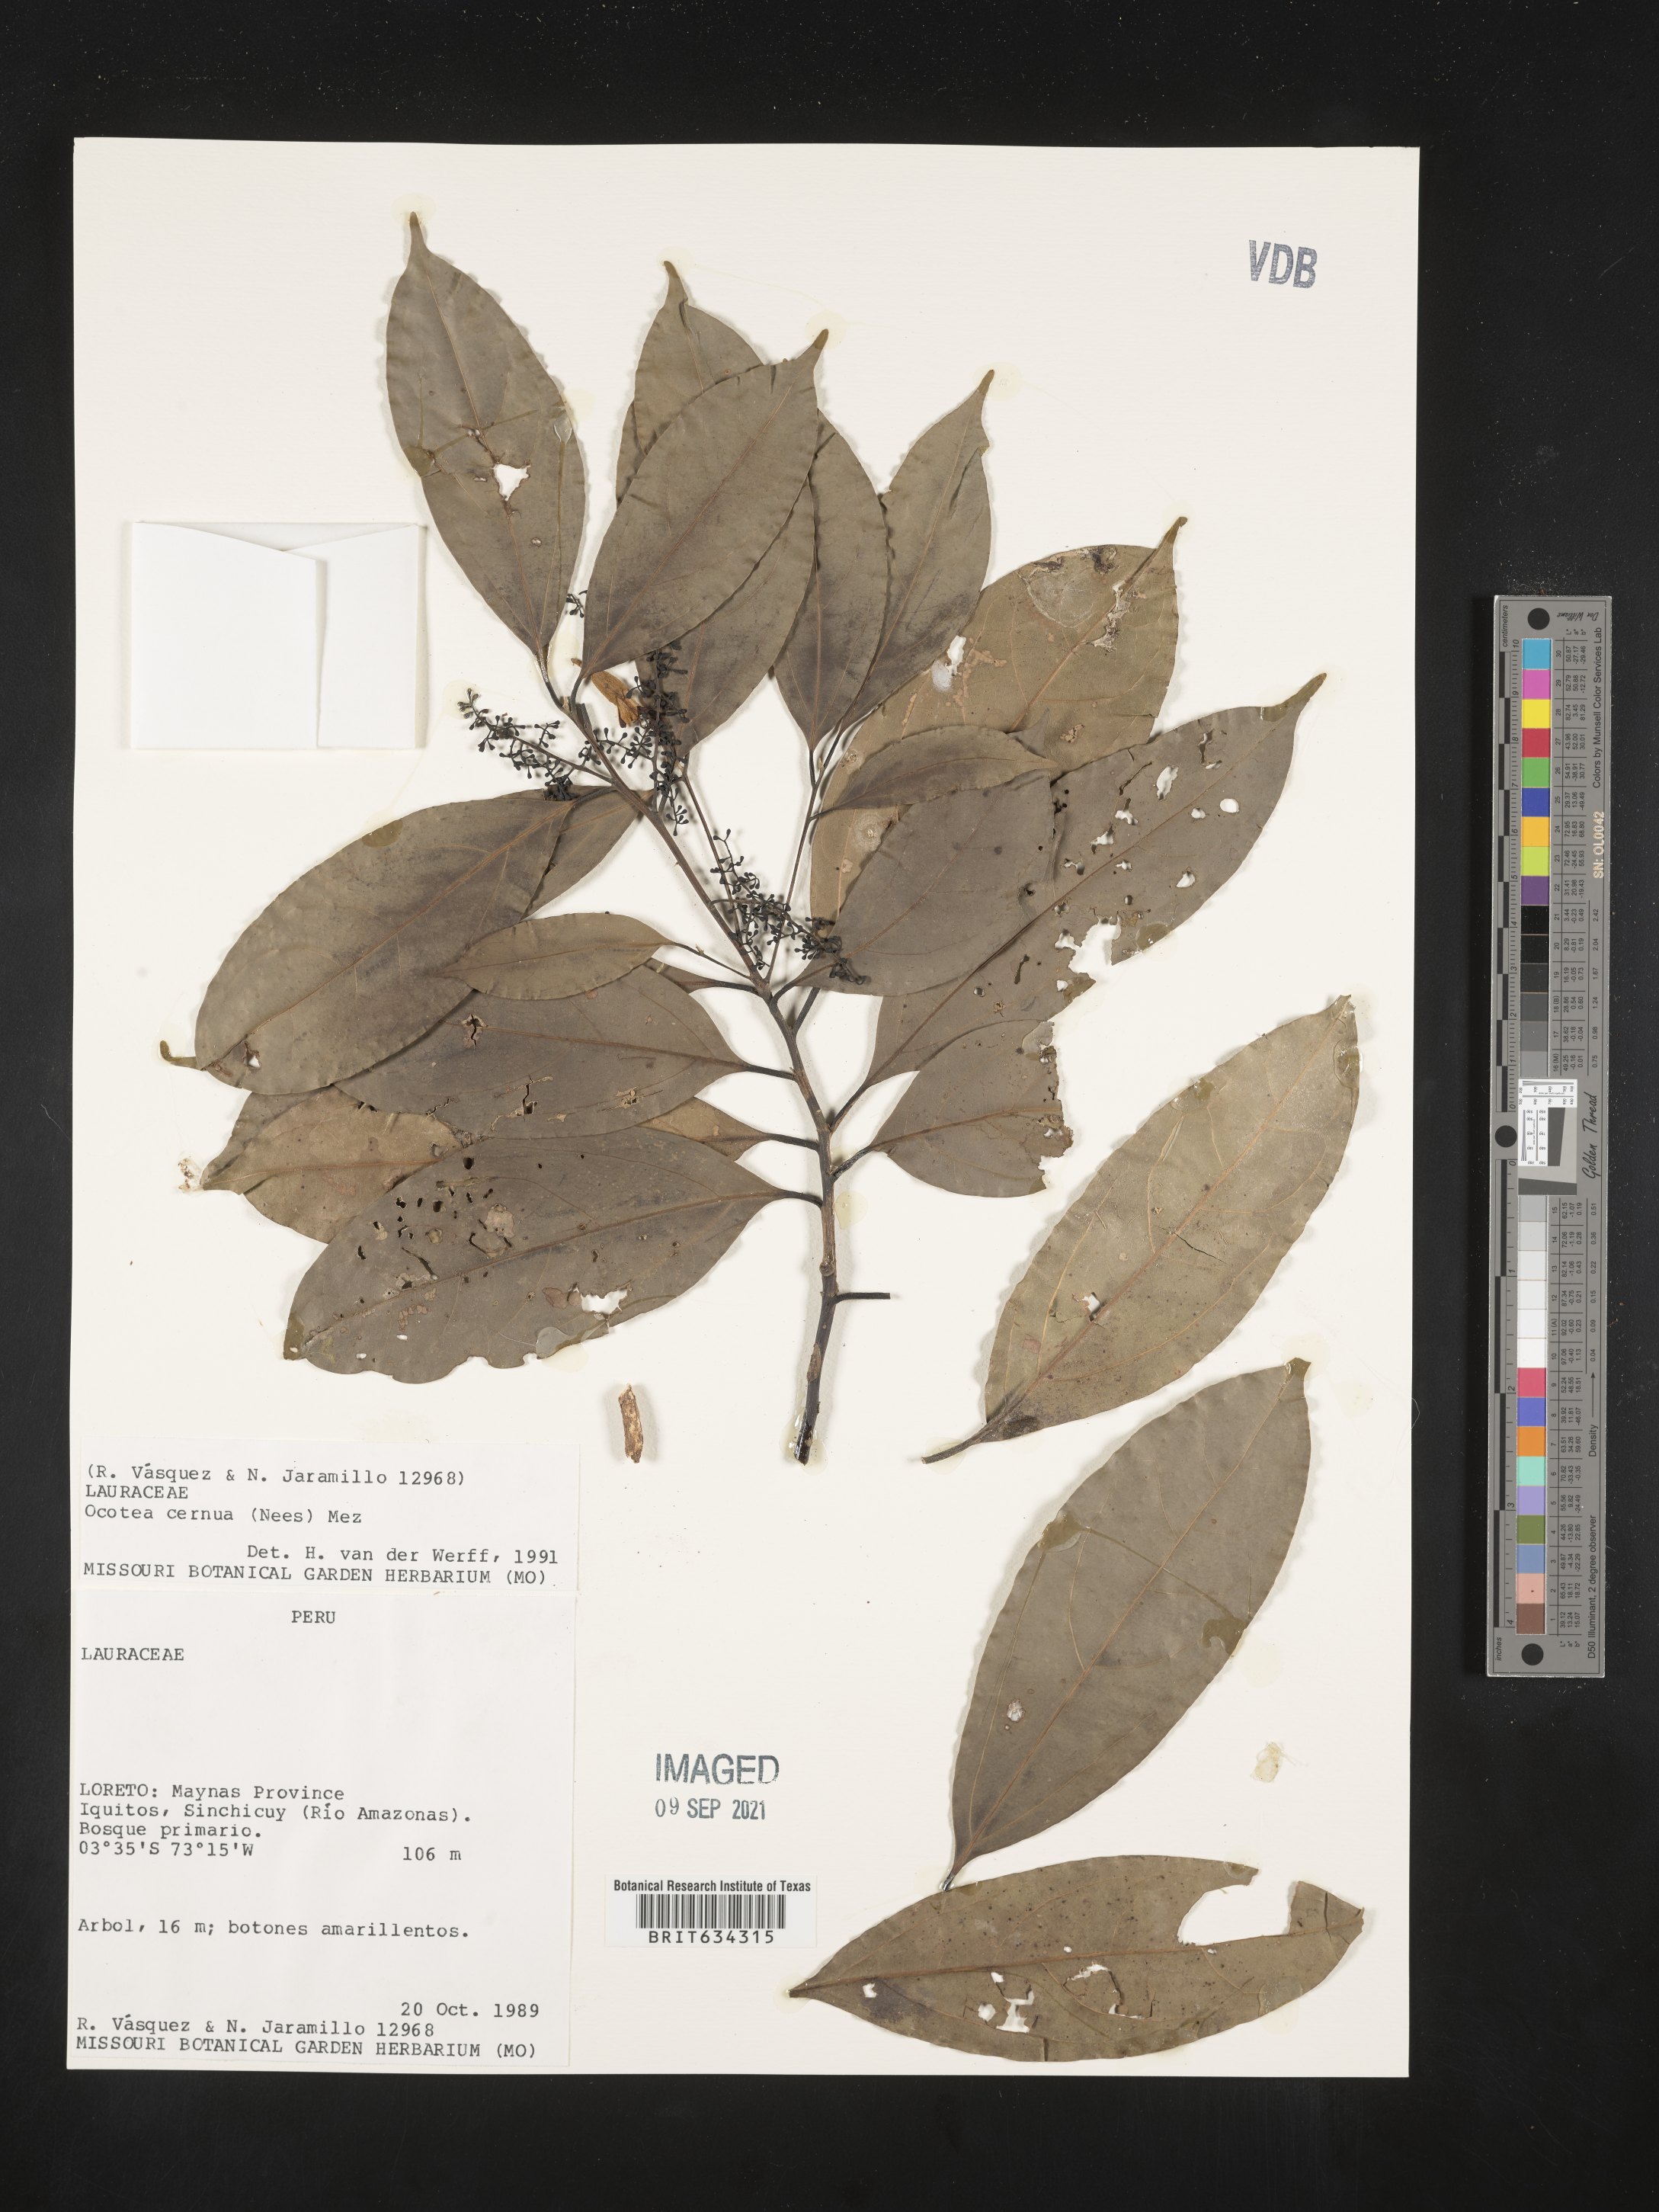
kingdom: Plantae
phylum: Tracheophyta
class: Magnoliopsida
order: Laurales
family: Lauraceae
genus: Ocotea
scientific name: Ocotea
